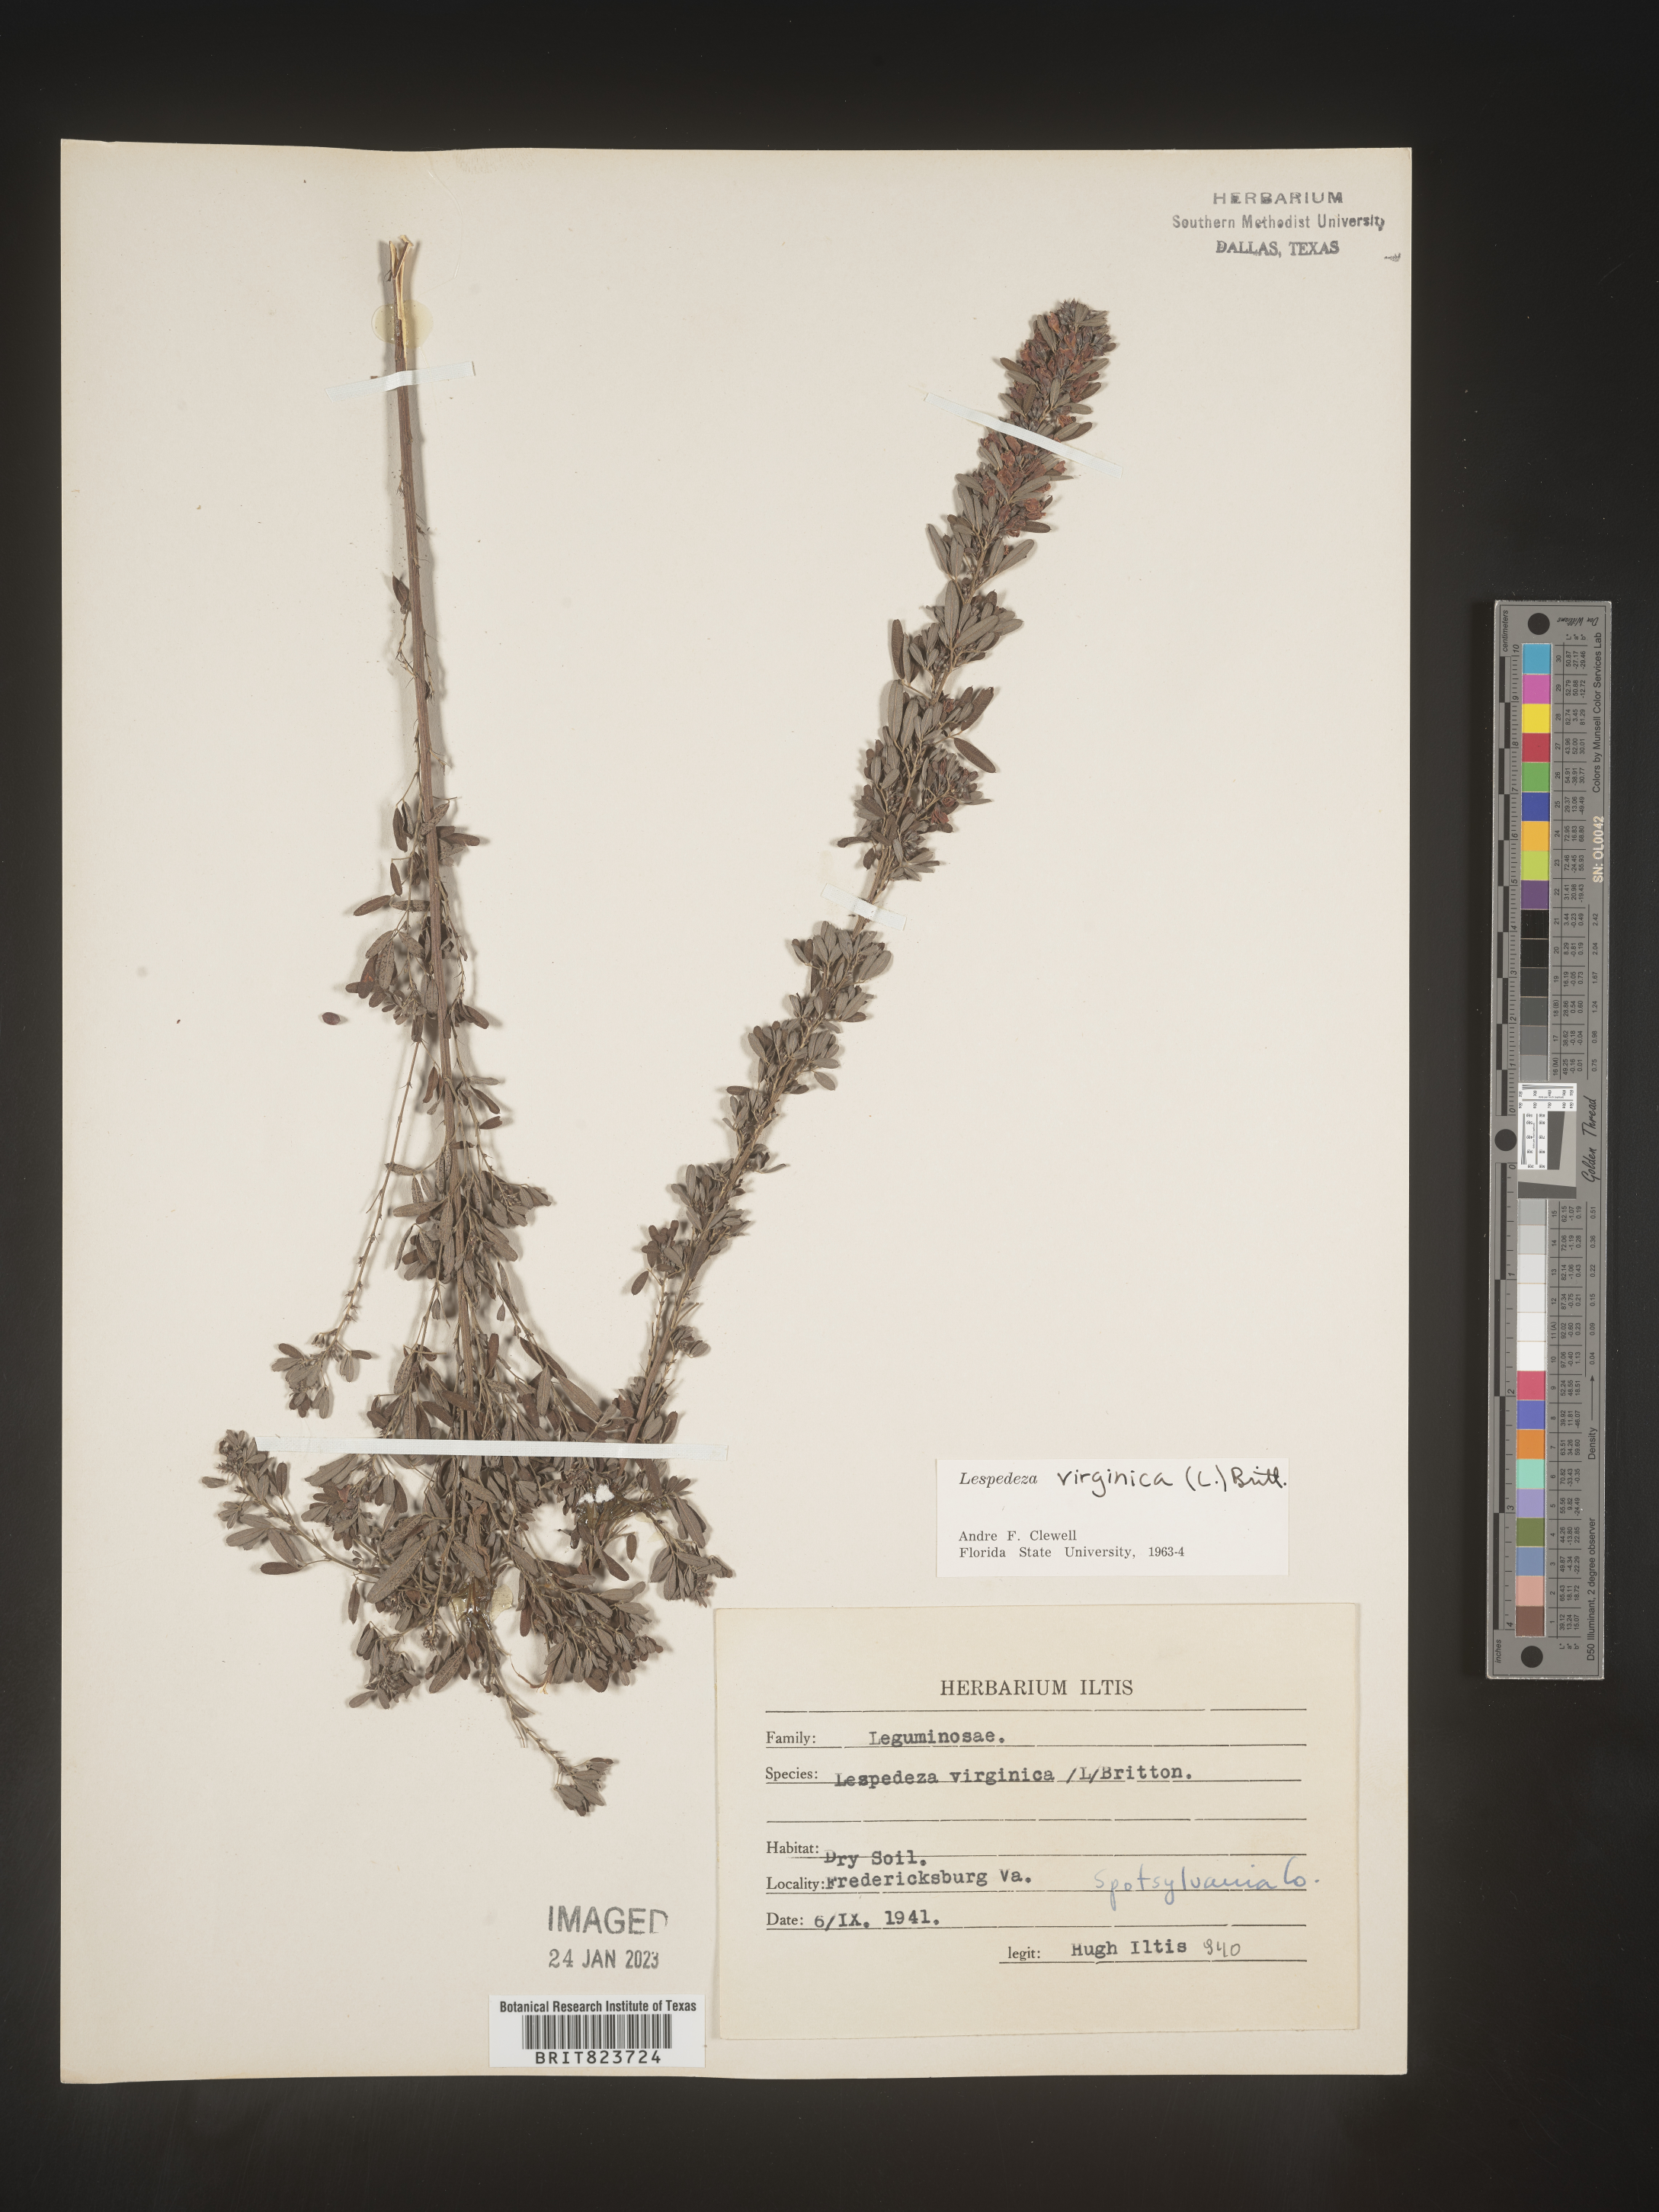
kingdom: Plantae
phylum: Tracheophyta
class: Magnoliopsida
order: Fabales
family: Fabaceae
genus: Lespedeza
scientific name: Lespedeza virginica
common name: Slender bush-clover
